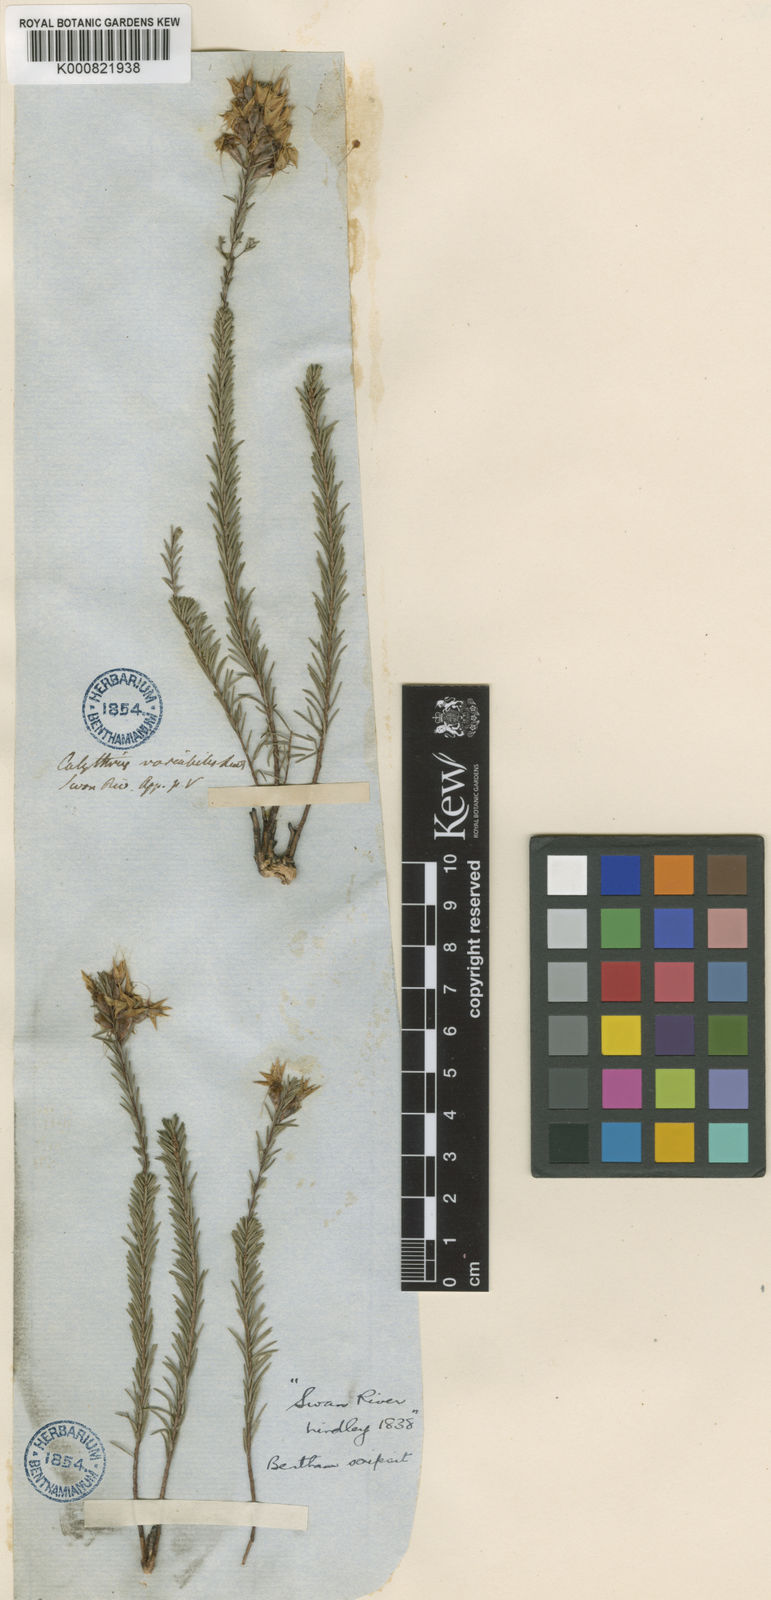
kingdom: Plantae
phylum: Tracheophyta
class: Magnoliopsida
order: Myrtales
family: Myrtaceae
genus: Calytrix
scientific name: Calytrix variabilis
